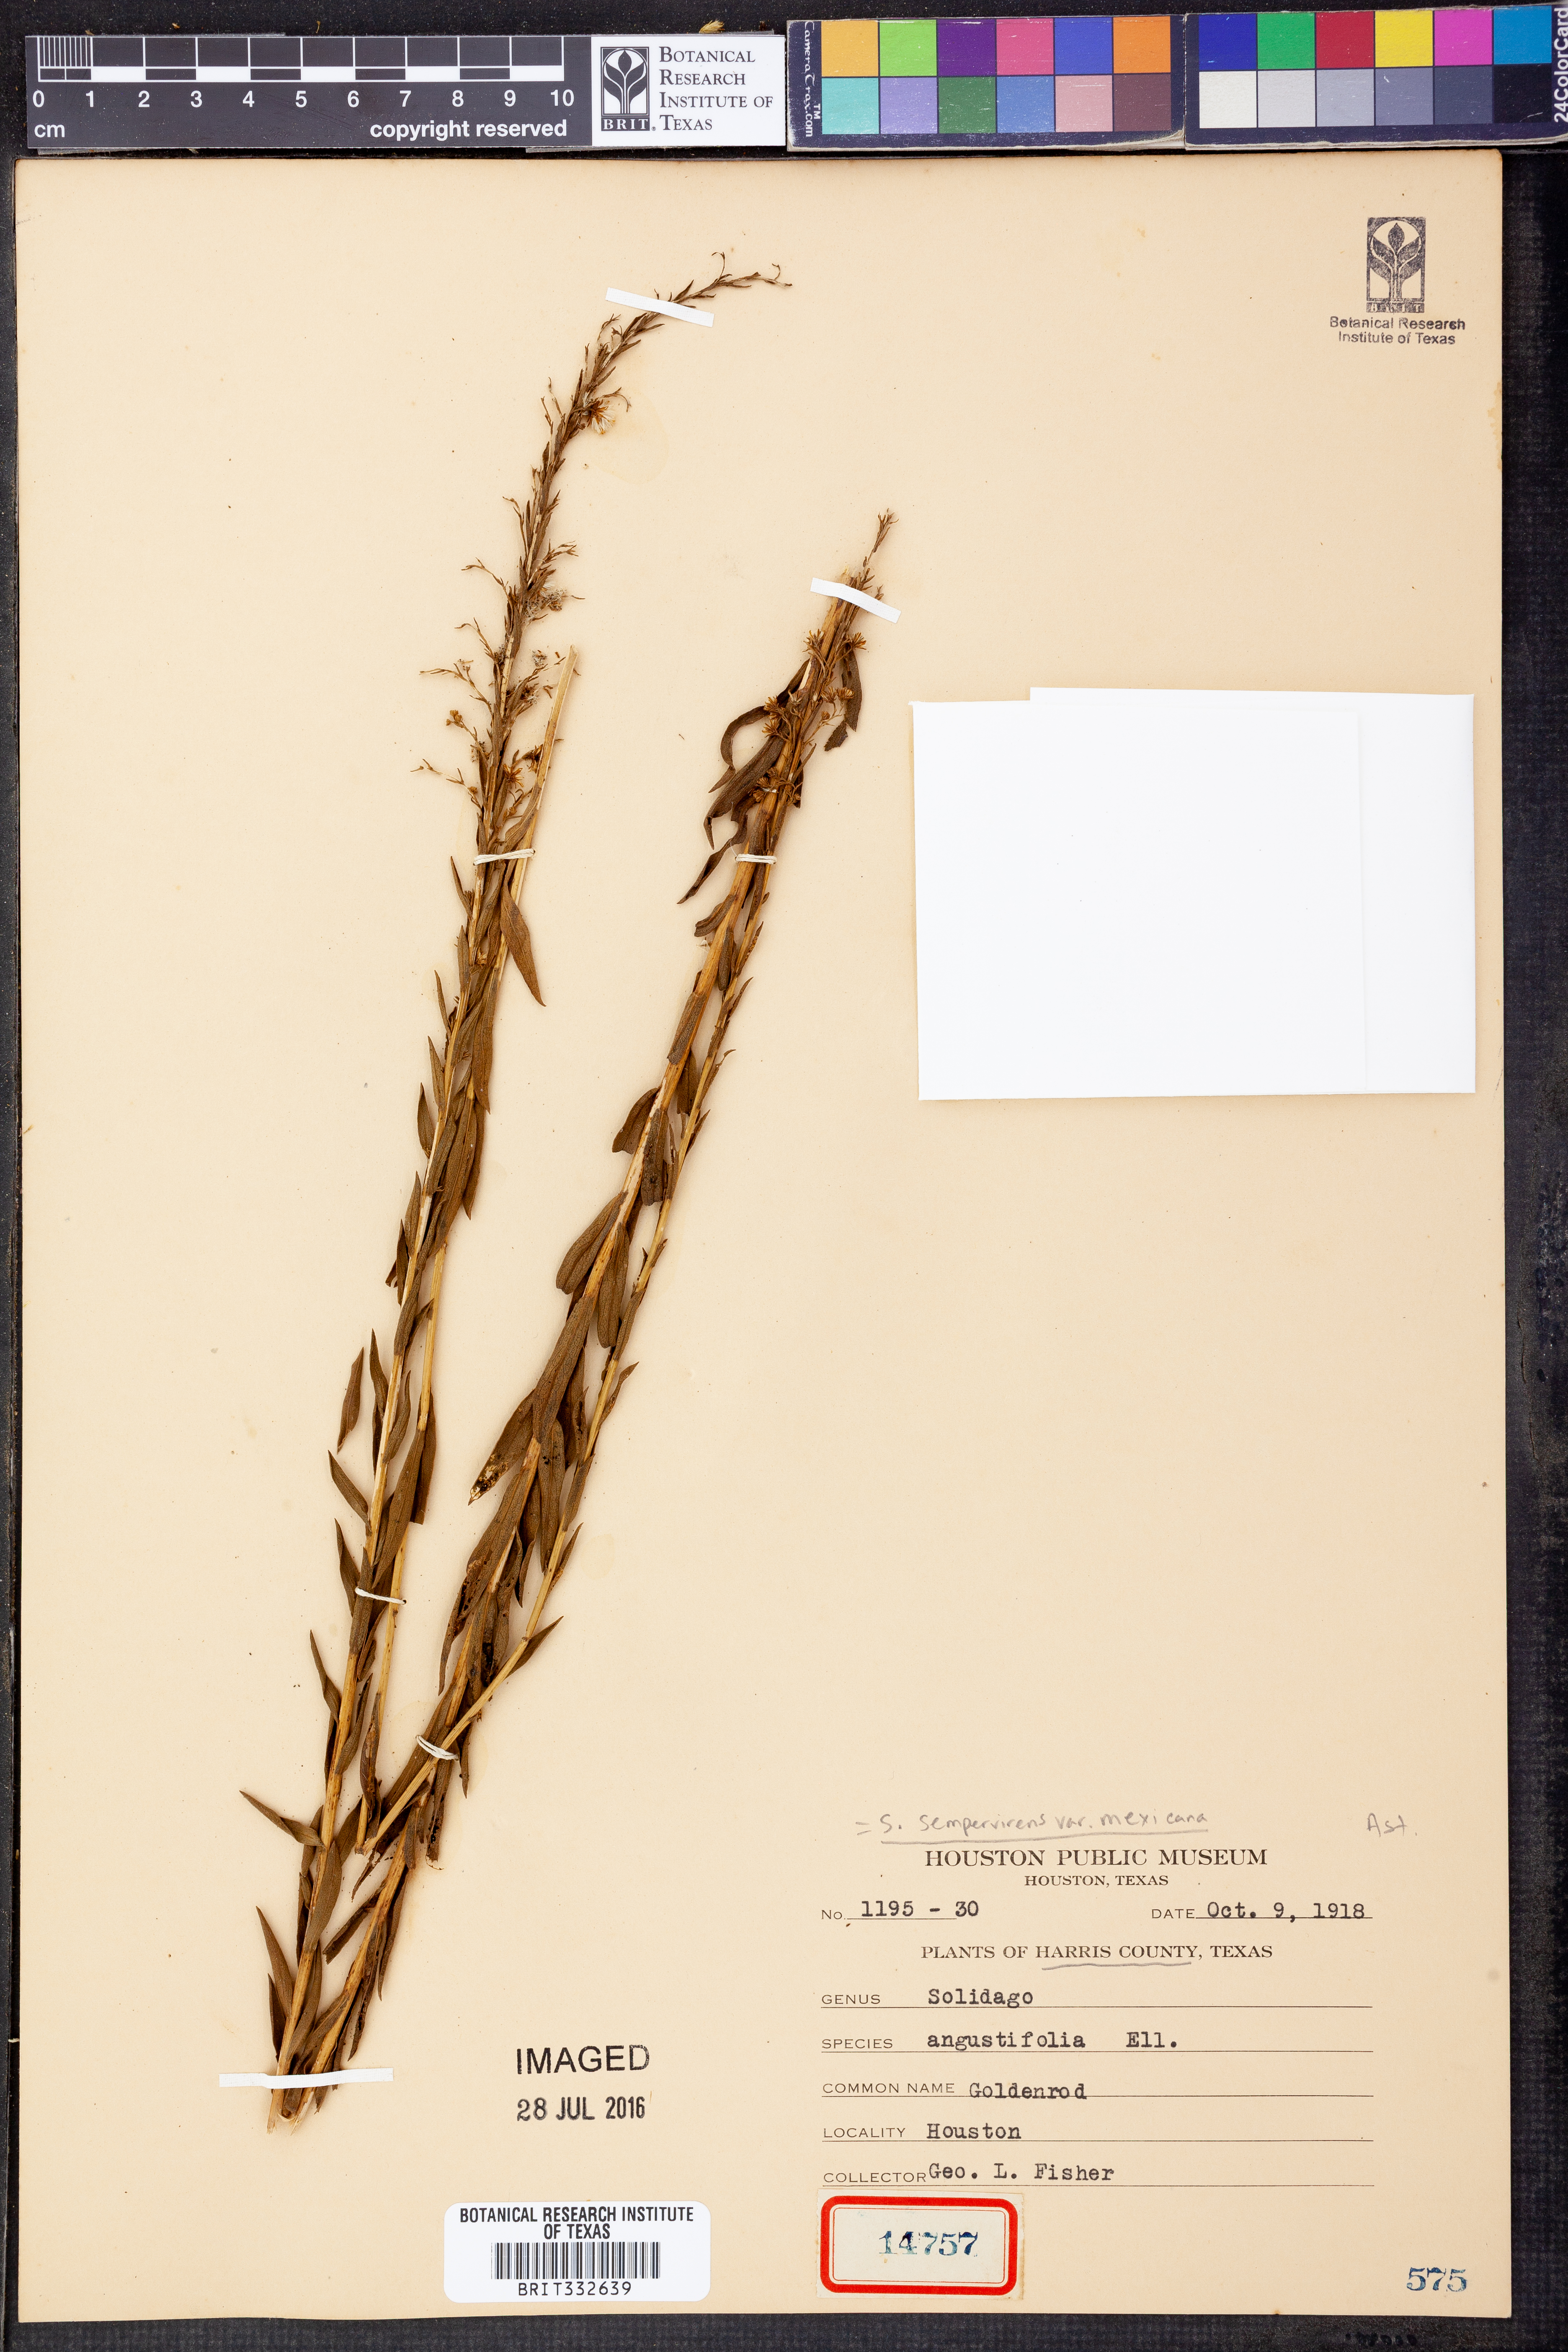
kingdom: Plantae
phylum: Tracheophyta
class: Magnoliopsida
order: Asterales
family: Asteraceae
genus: Solidago
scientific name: Solidago mexicana
